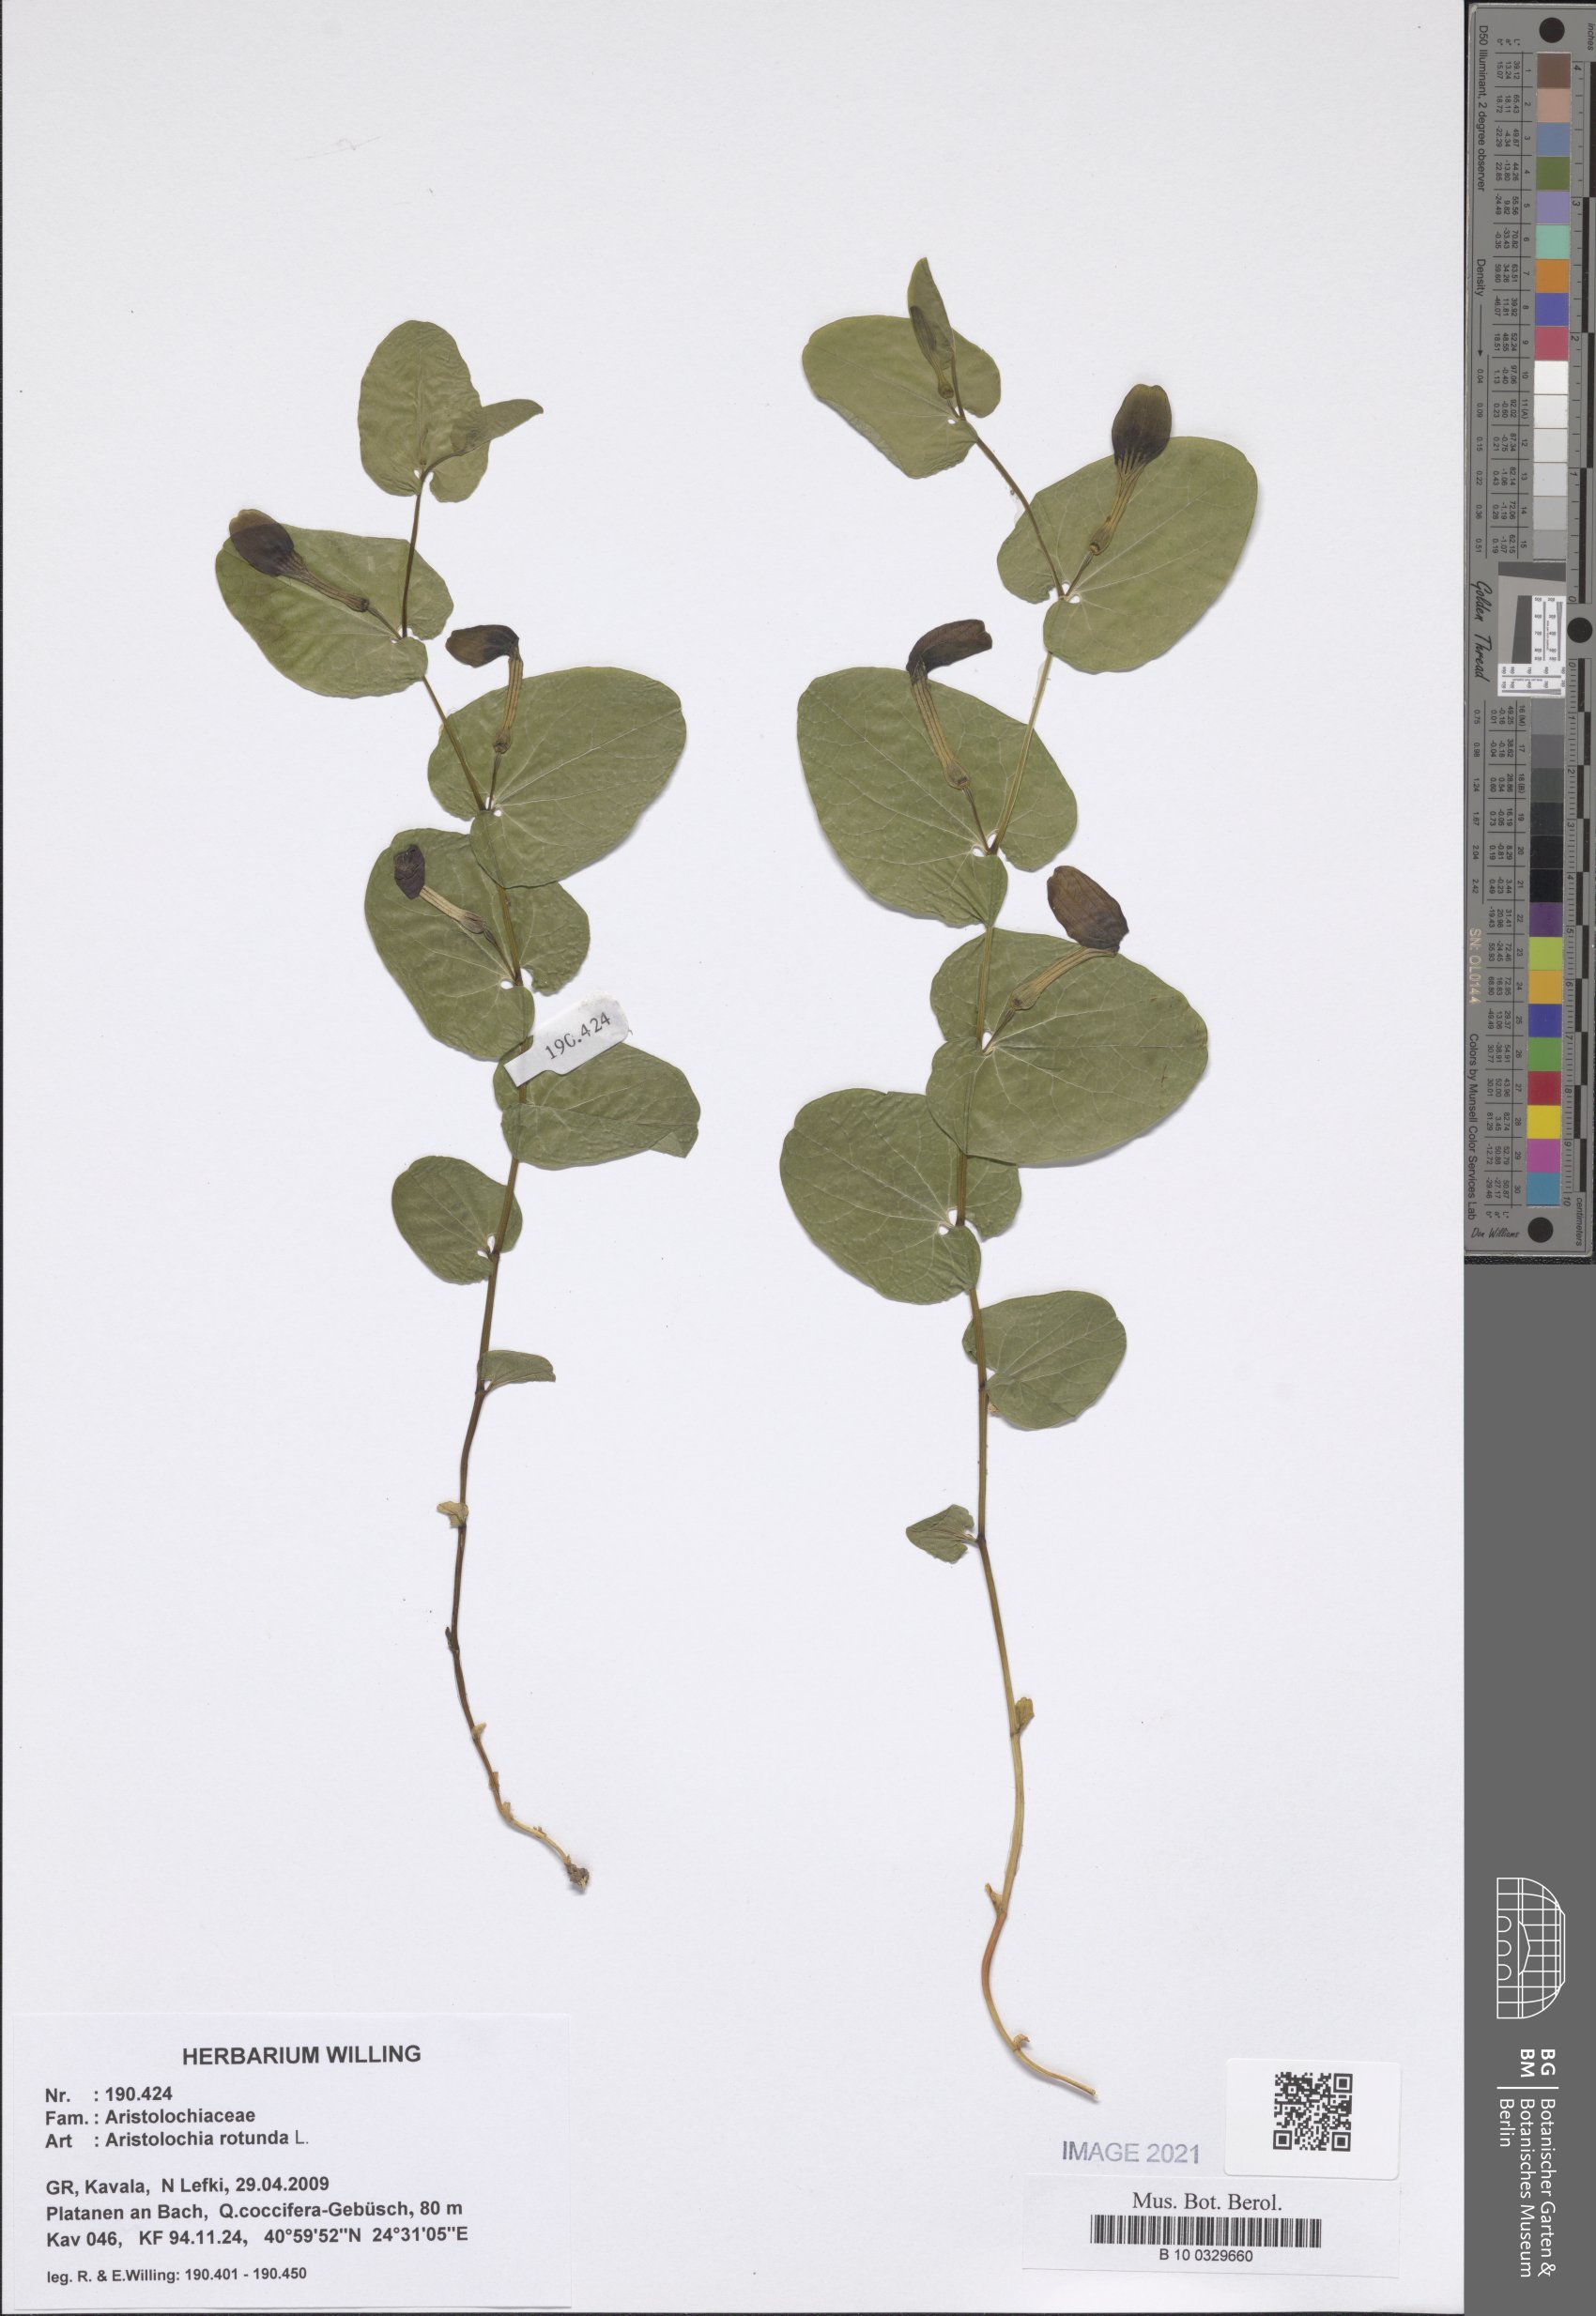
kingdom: Plantae
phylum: Tracheophyta
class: Magnoliopsida
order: Piperales
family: Aristolochiaceae
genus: Aristolochia
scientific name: Aristolochia rotunda
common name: Smearwort
